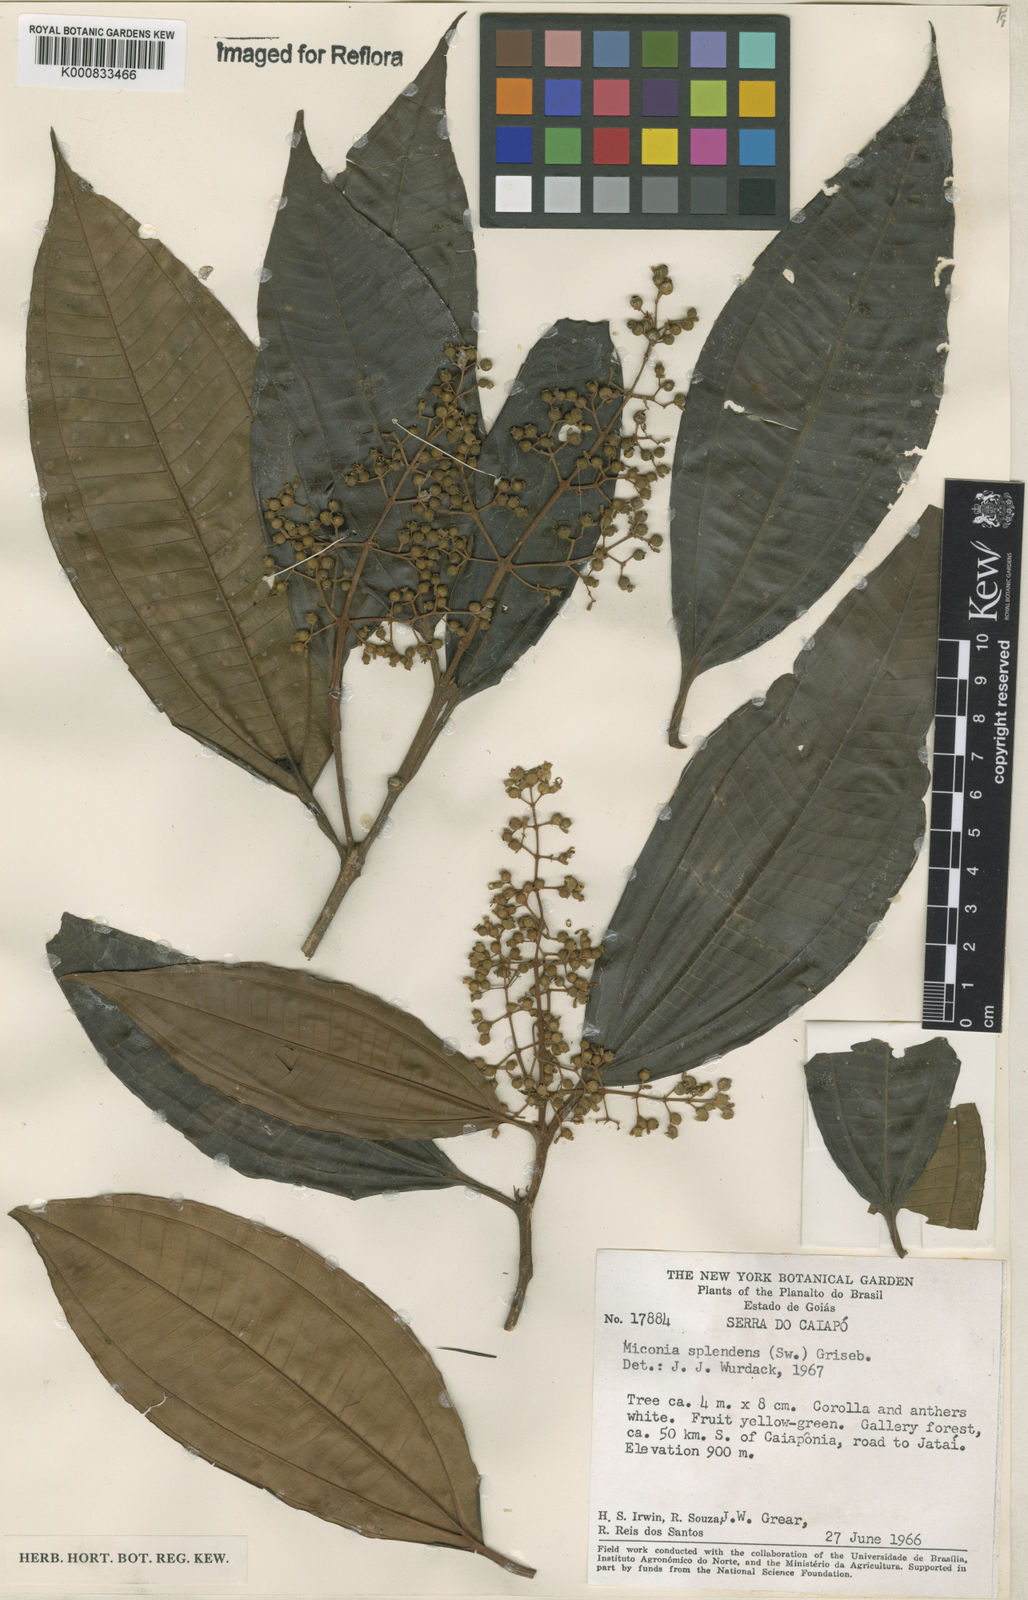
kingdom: Plantae
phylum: Tracheophyta
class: Magnoliopsida
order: Myrtales
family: Melastomataceae
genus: Miconia
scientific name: Miconia splendens
